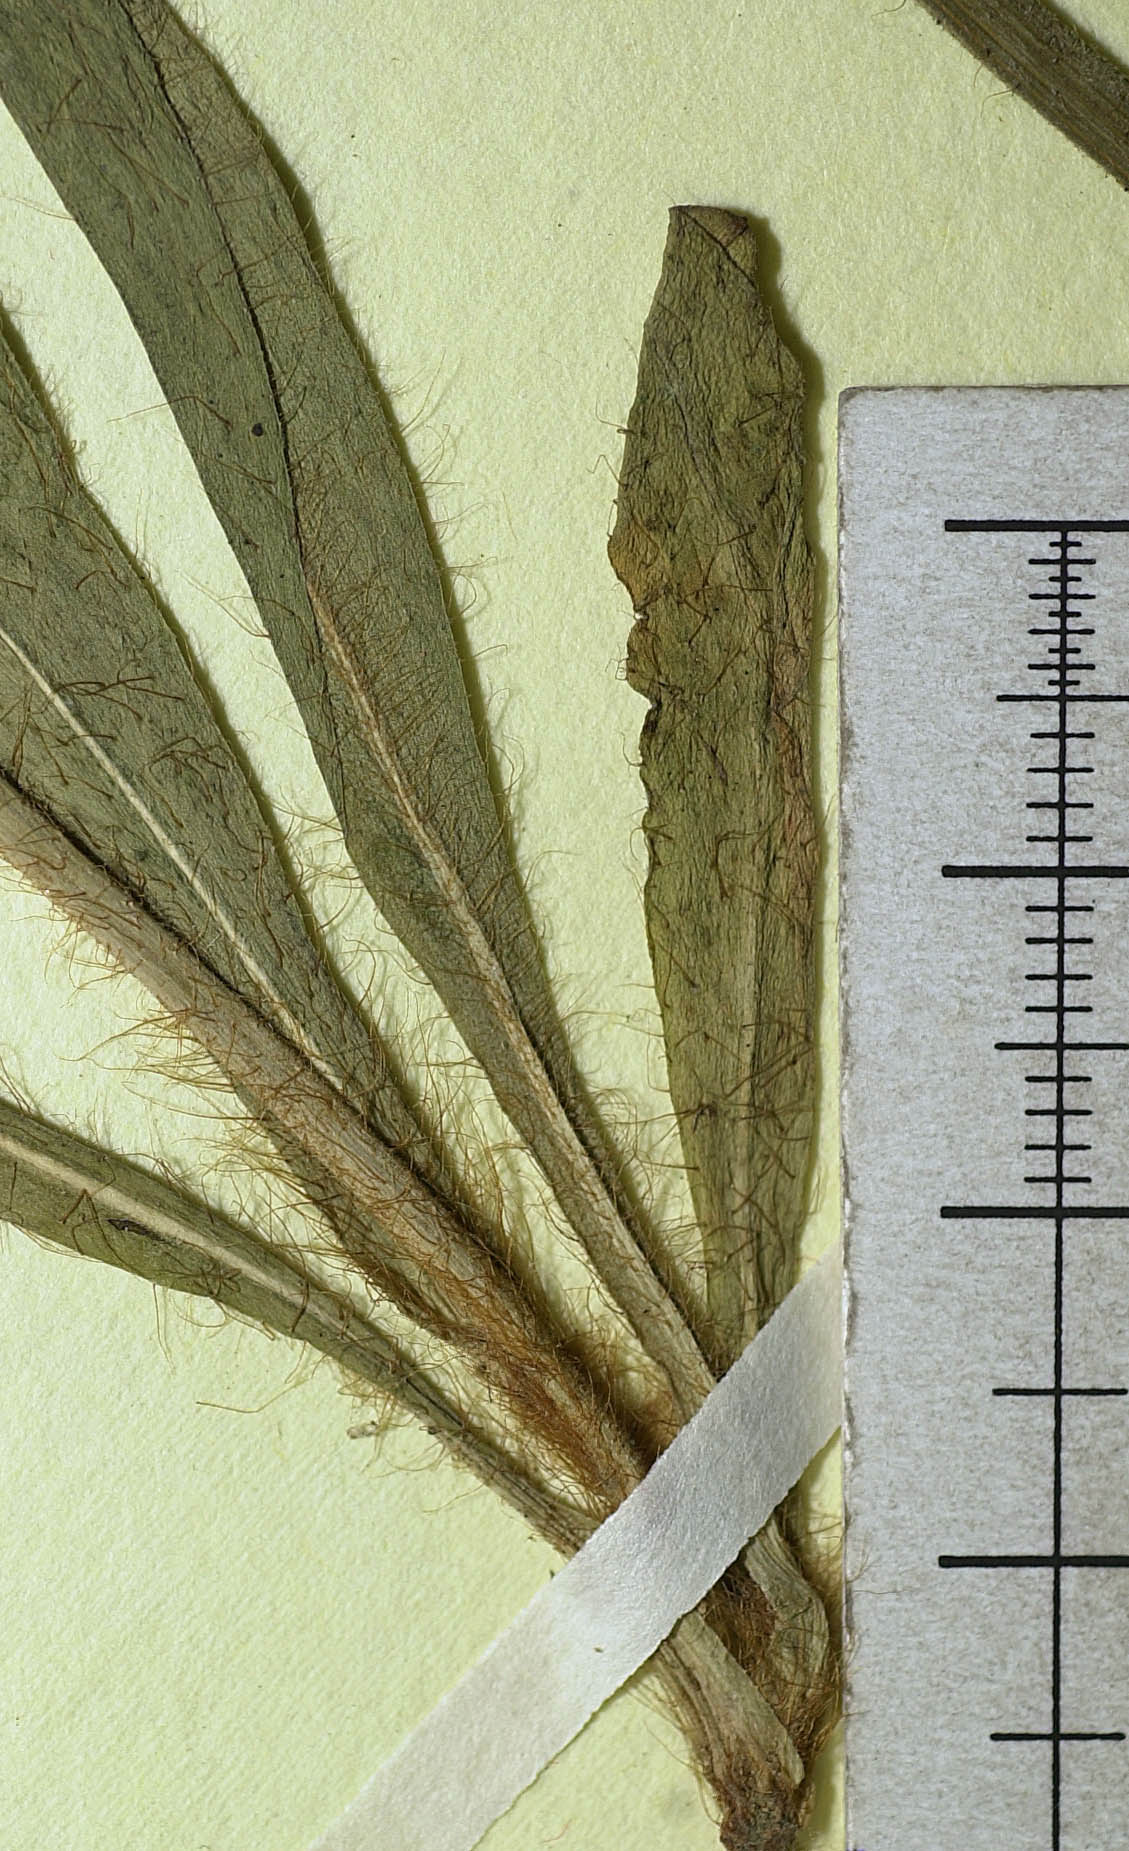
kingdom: Plantae
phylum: Tracheophyta
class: Magnoliopsida
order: Asterales
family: Asteraceae
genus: Pilosella
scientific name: Pilosella iserana
